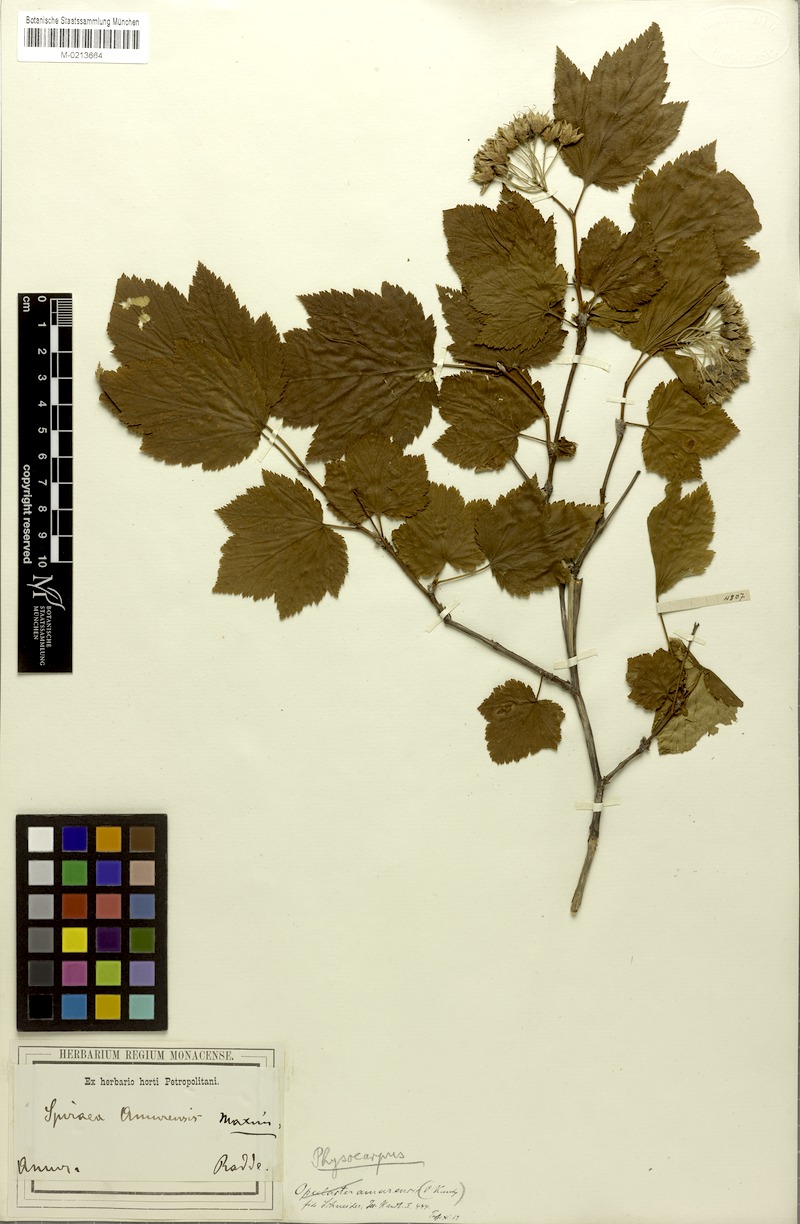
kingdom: Plantae
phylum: Tracheophyta
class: Magnoliopsida
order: Rosales
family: Rosaceae
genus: Physocarpus
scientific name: Physocarpus amurensis
